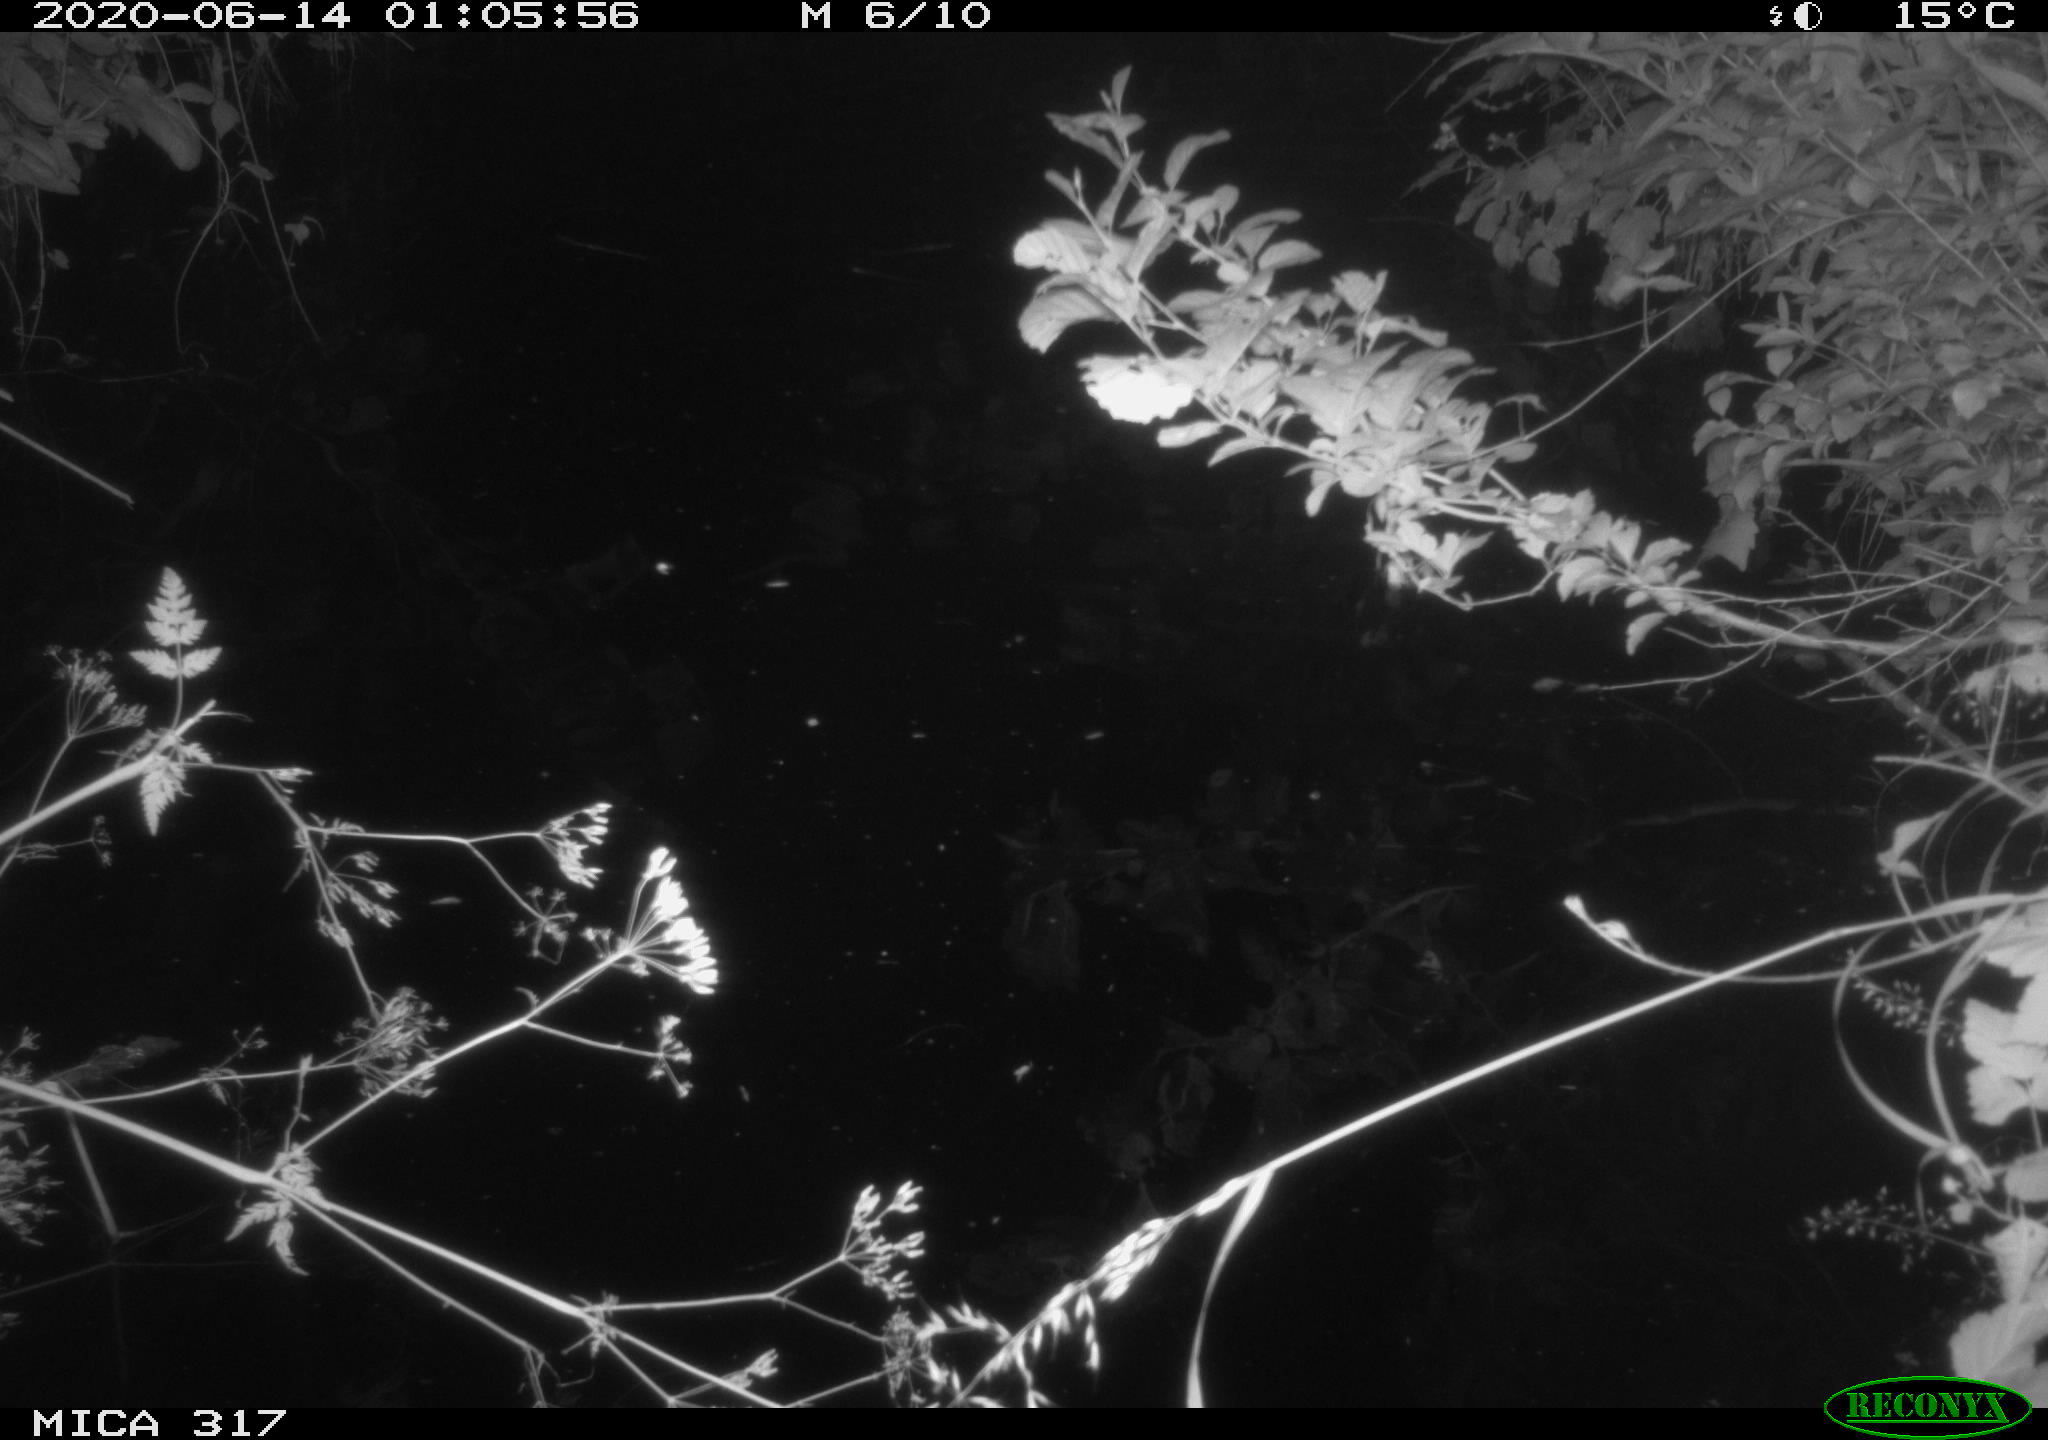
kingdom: Animalia
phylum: Chordata
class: Mammalia
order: Rodentia
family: Muridae
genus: Rattus
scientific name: Rattus norvegicus
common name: Brown rat
